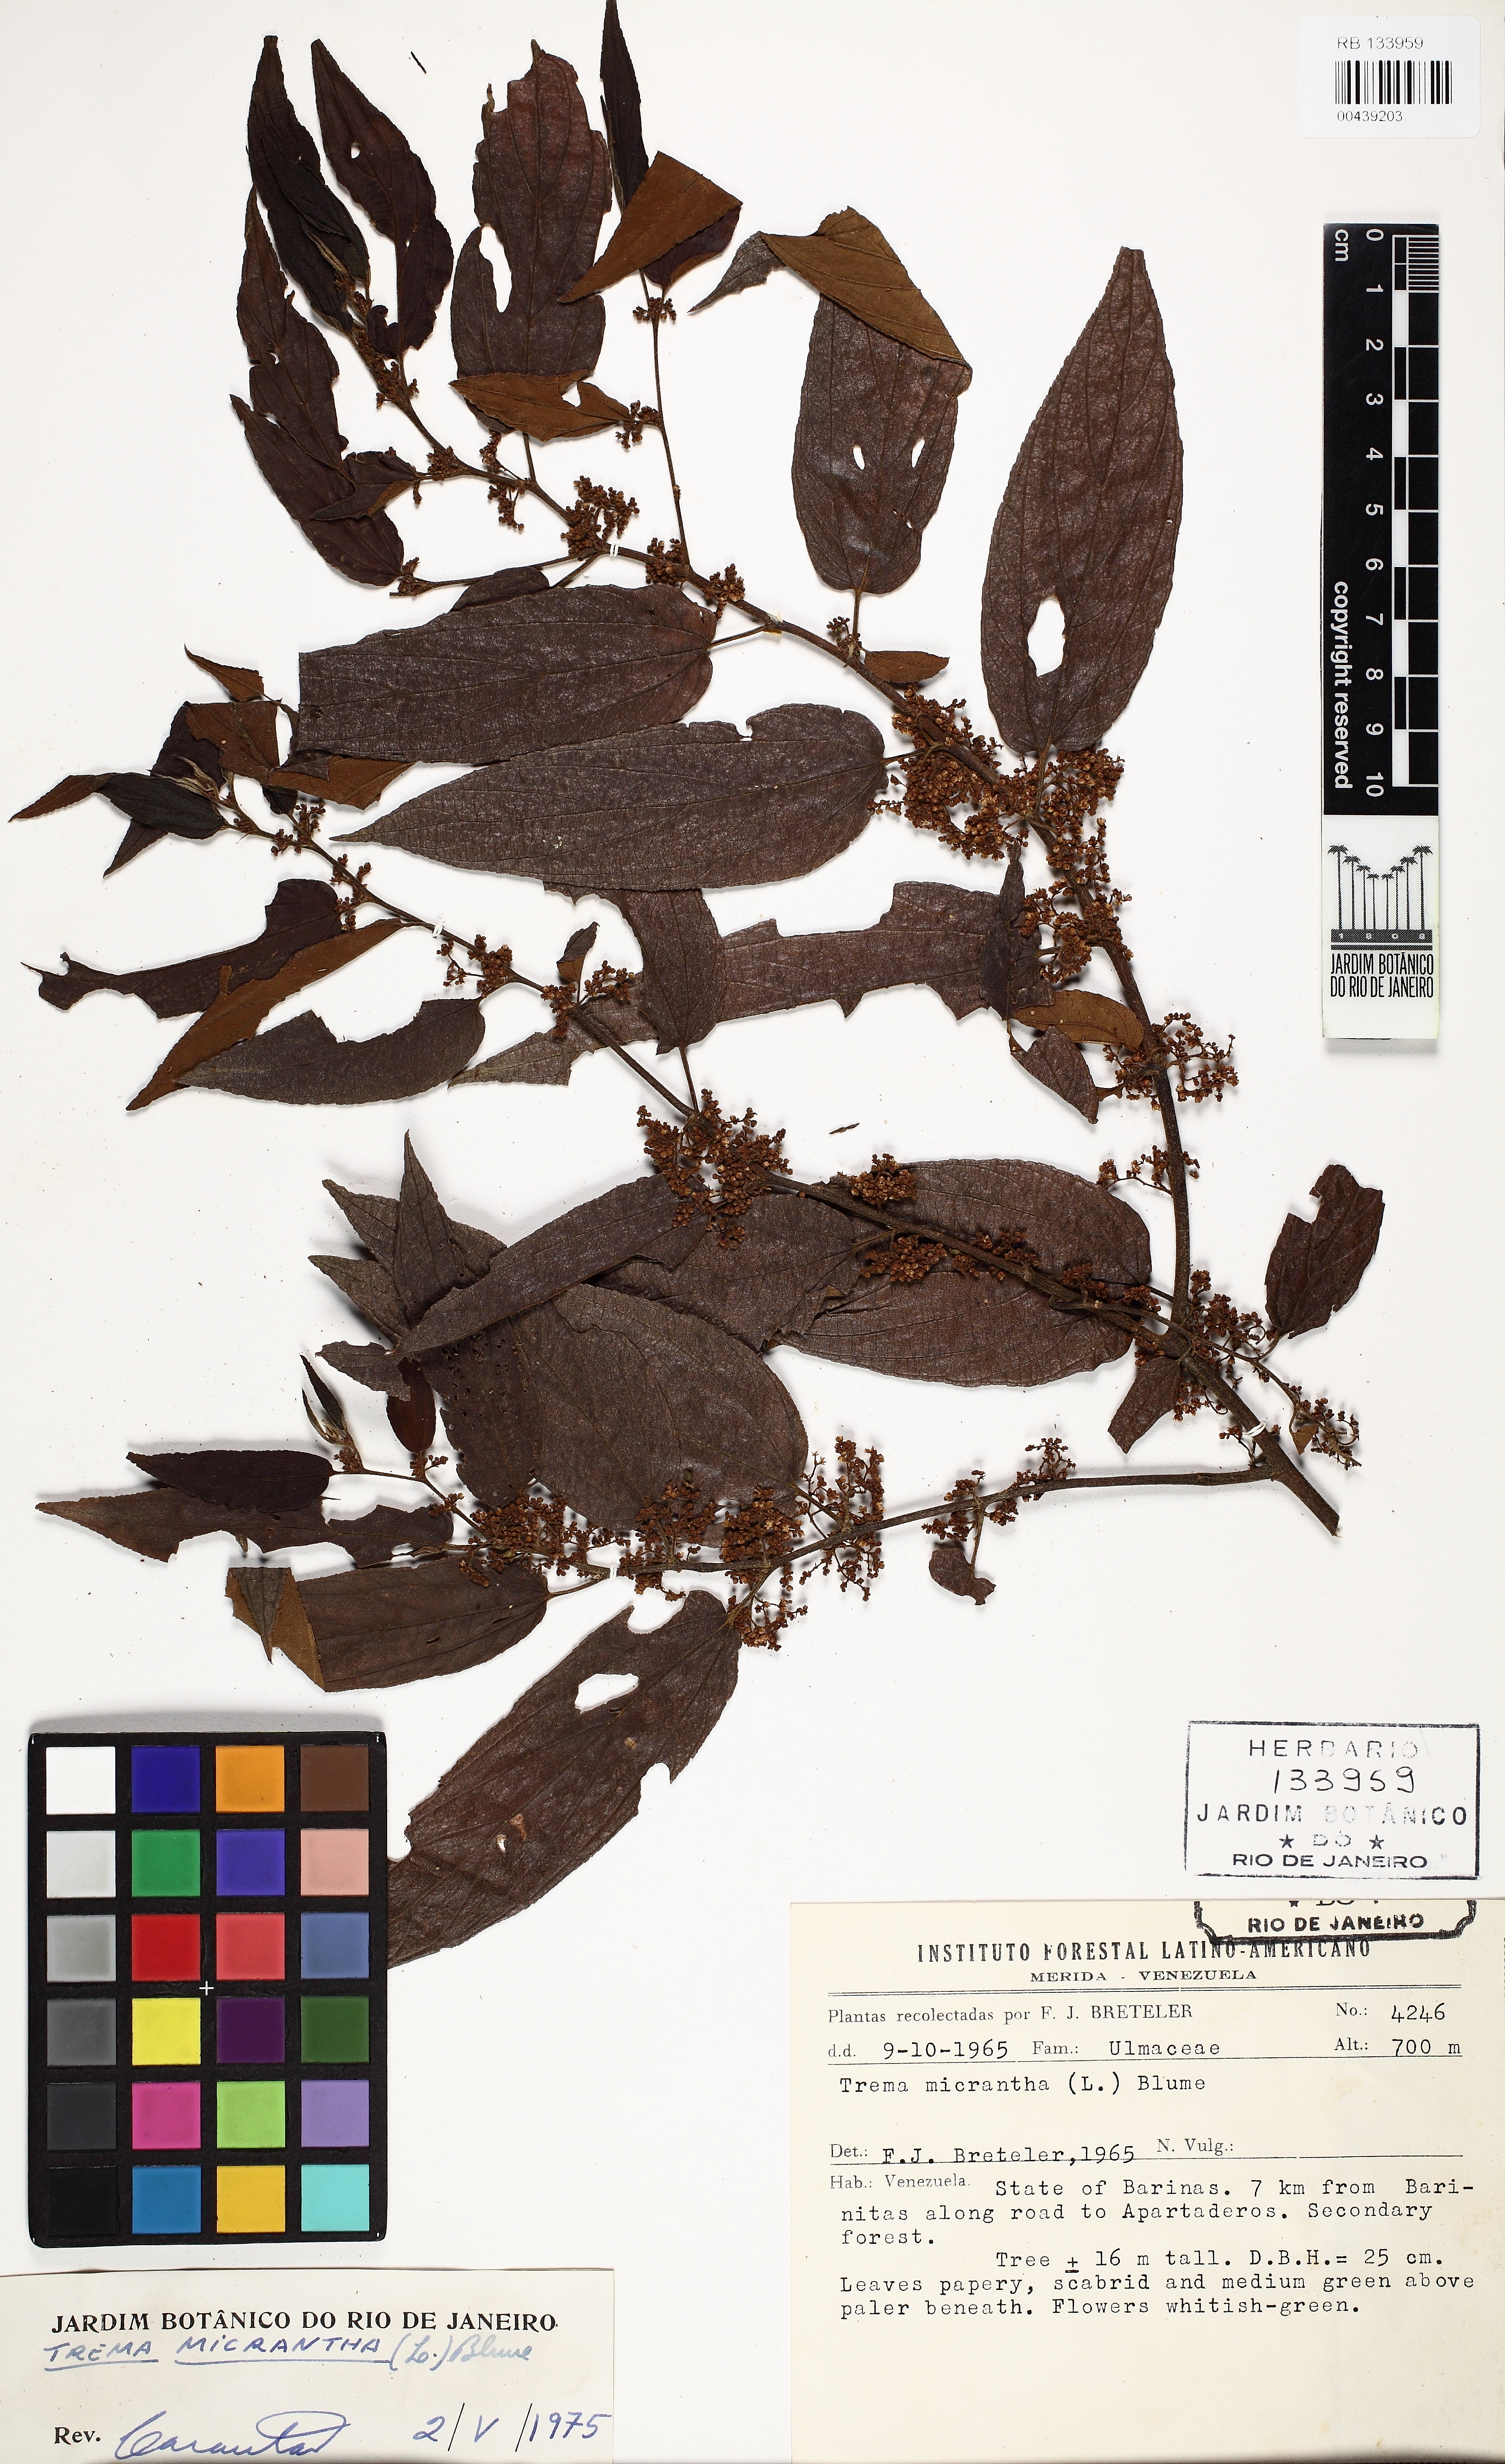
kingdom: Plantae
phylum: Tracheophyta
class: Magnoliopsida
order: Rosales
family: Cannabaceae
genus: Trema
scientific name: Trema micranthum
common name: Jamaican nettletree
